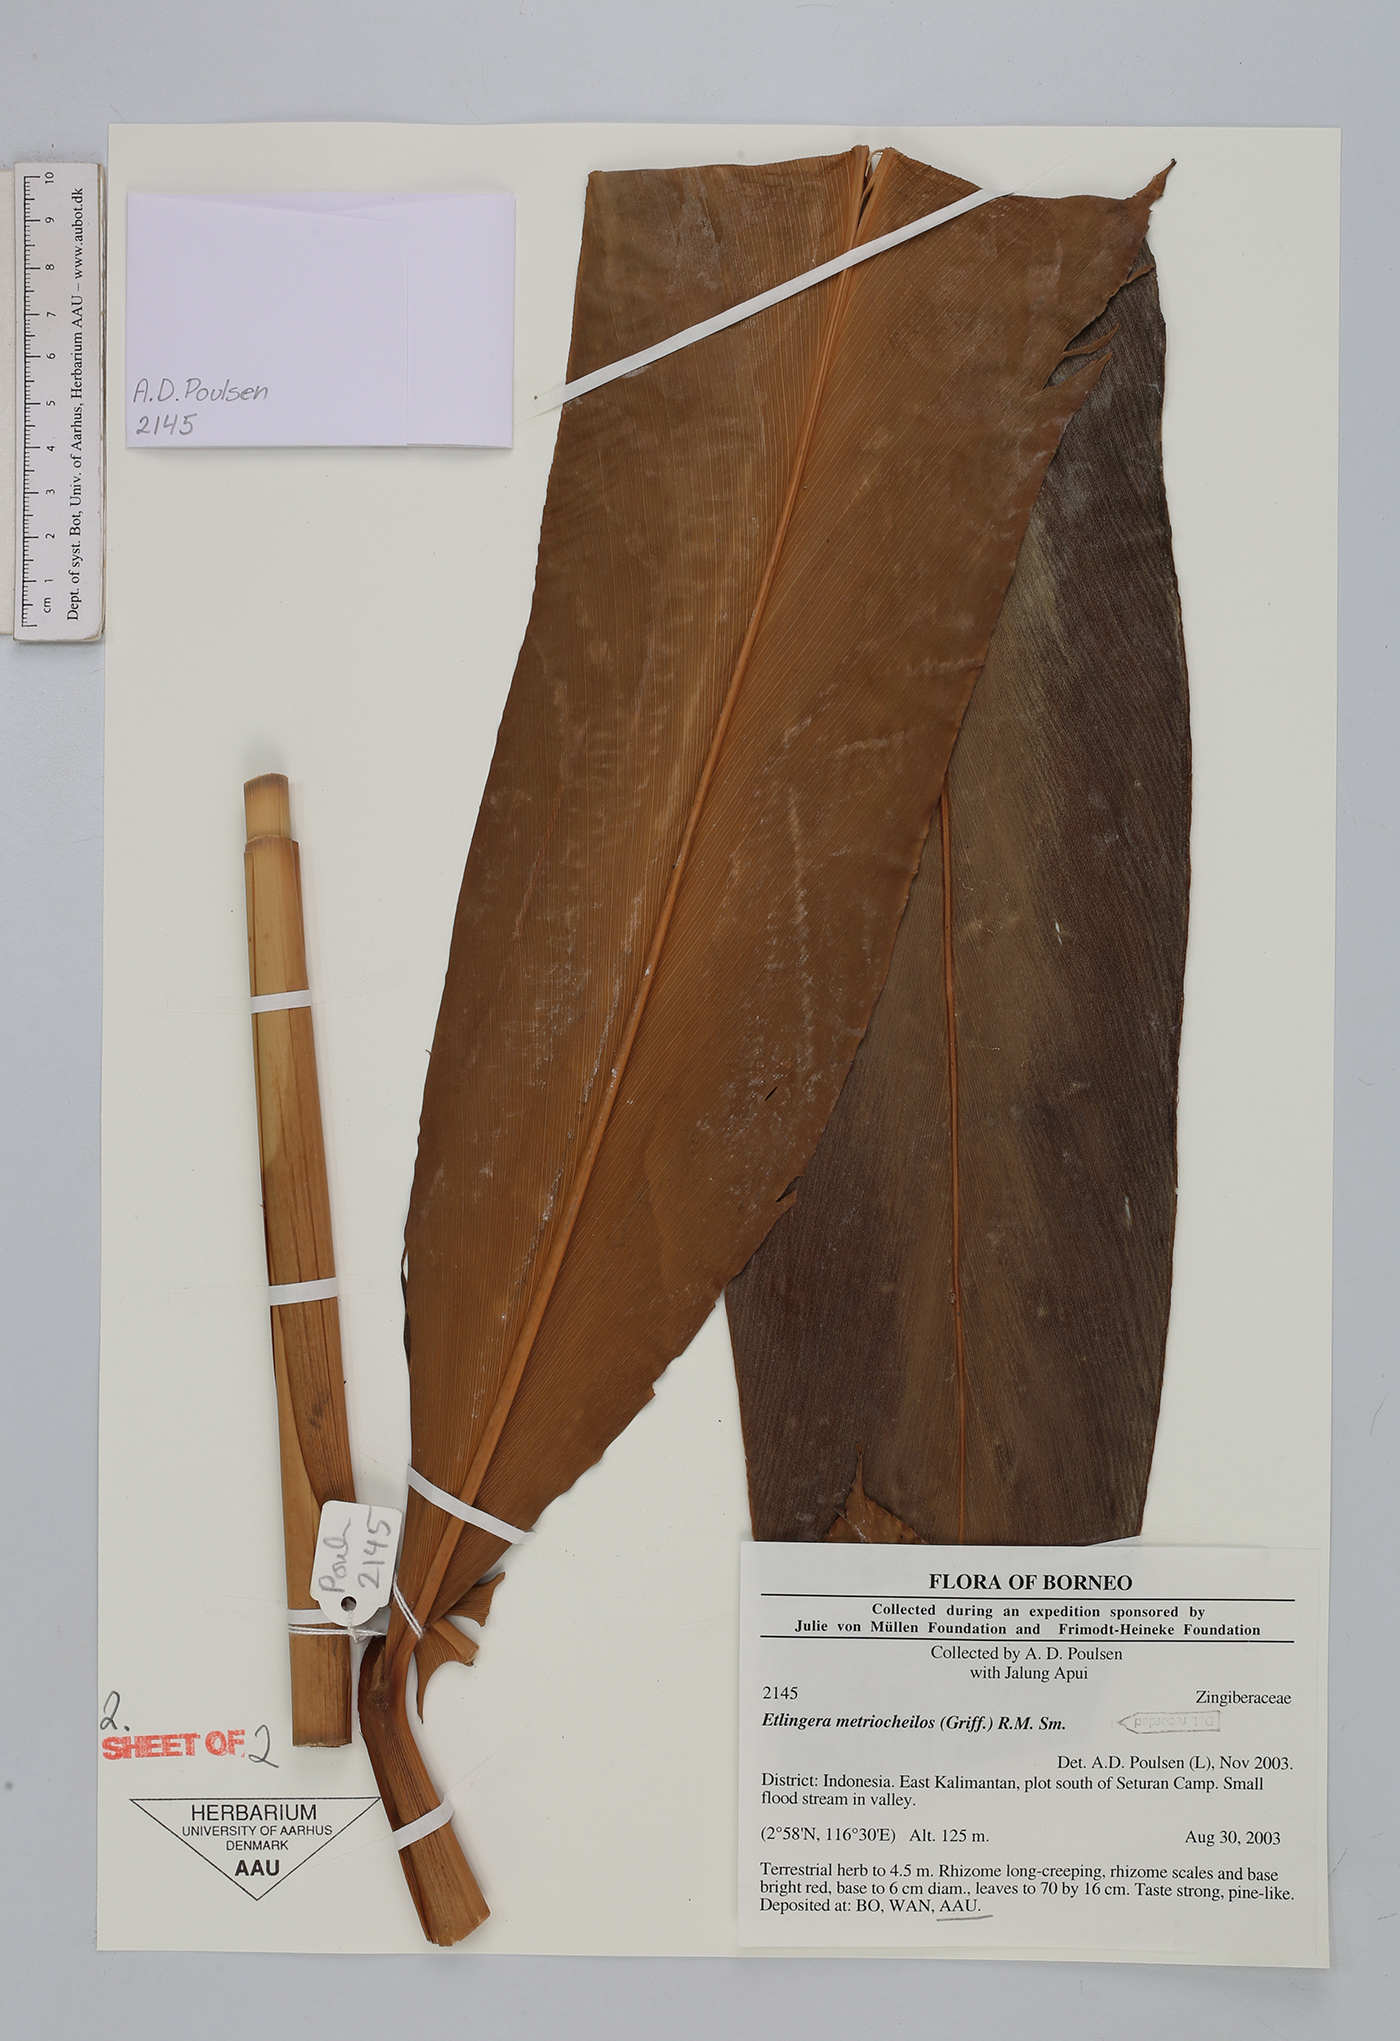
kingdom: Plantae
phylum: Tracheophyta
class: Liliopsida
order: Zingiberales
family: Zingiberaceae
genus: Etlingera
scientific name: Etlingera metriocheilos
